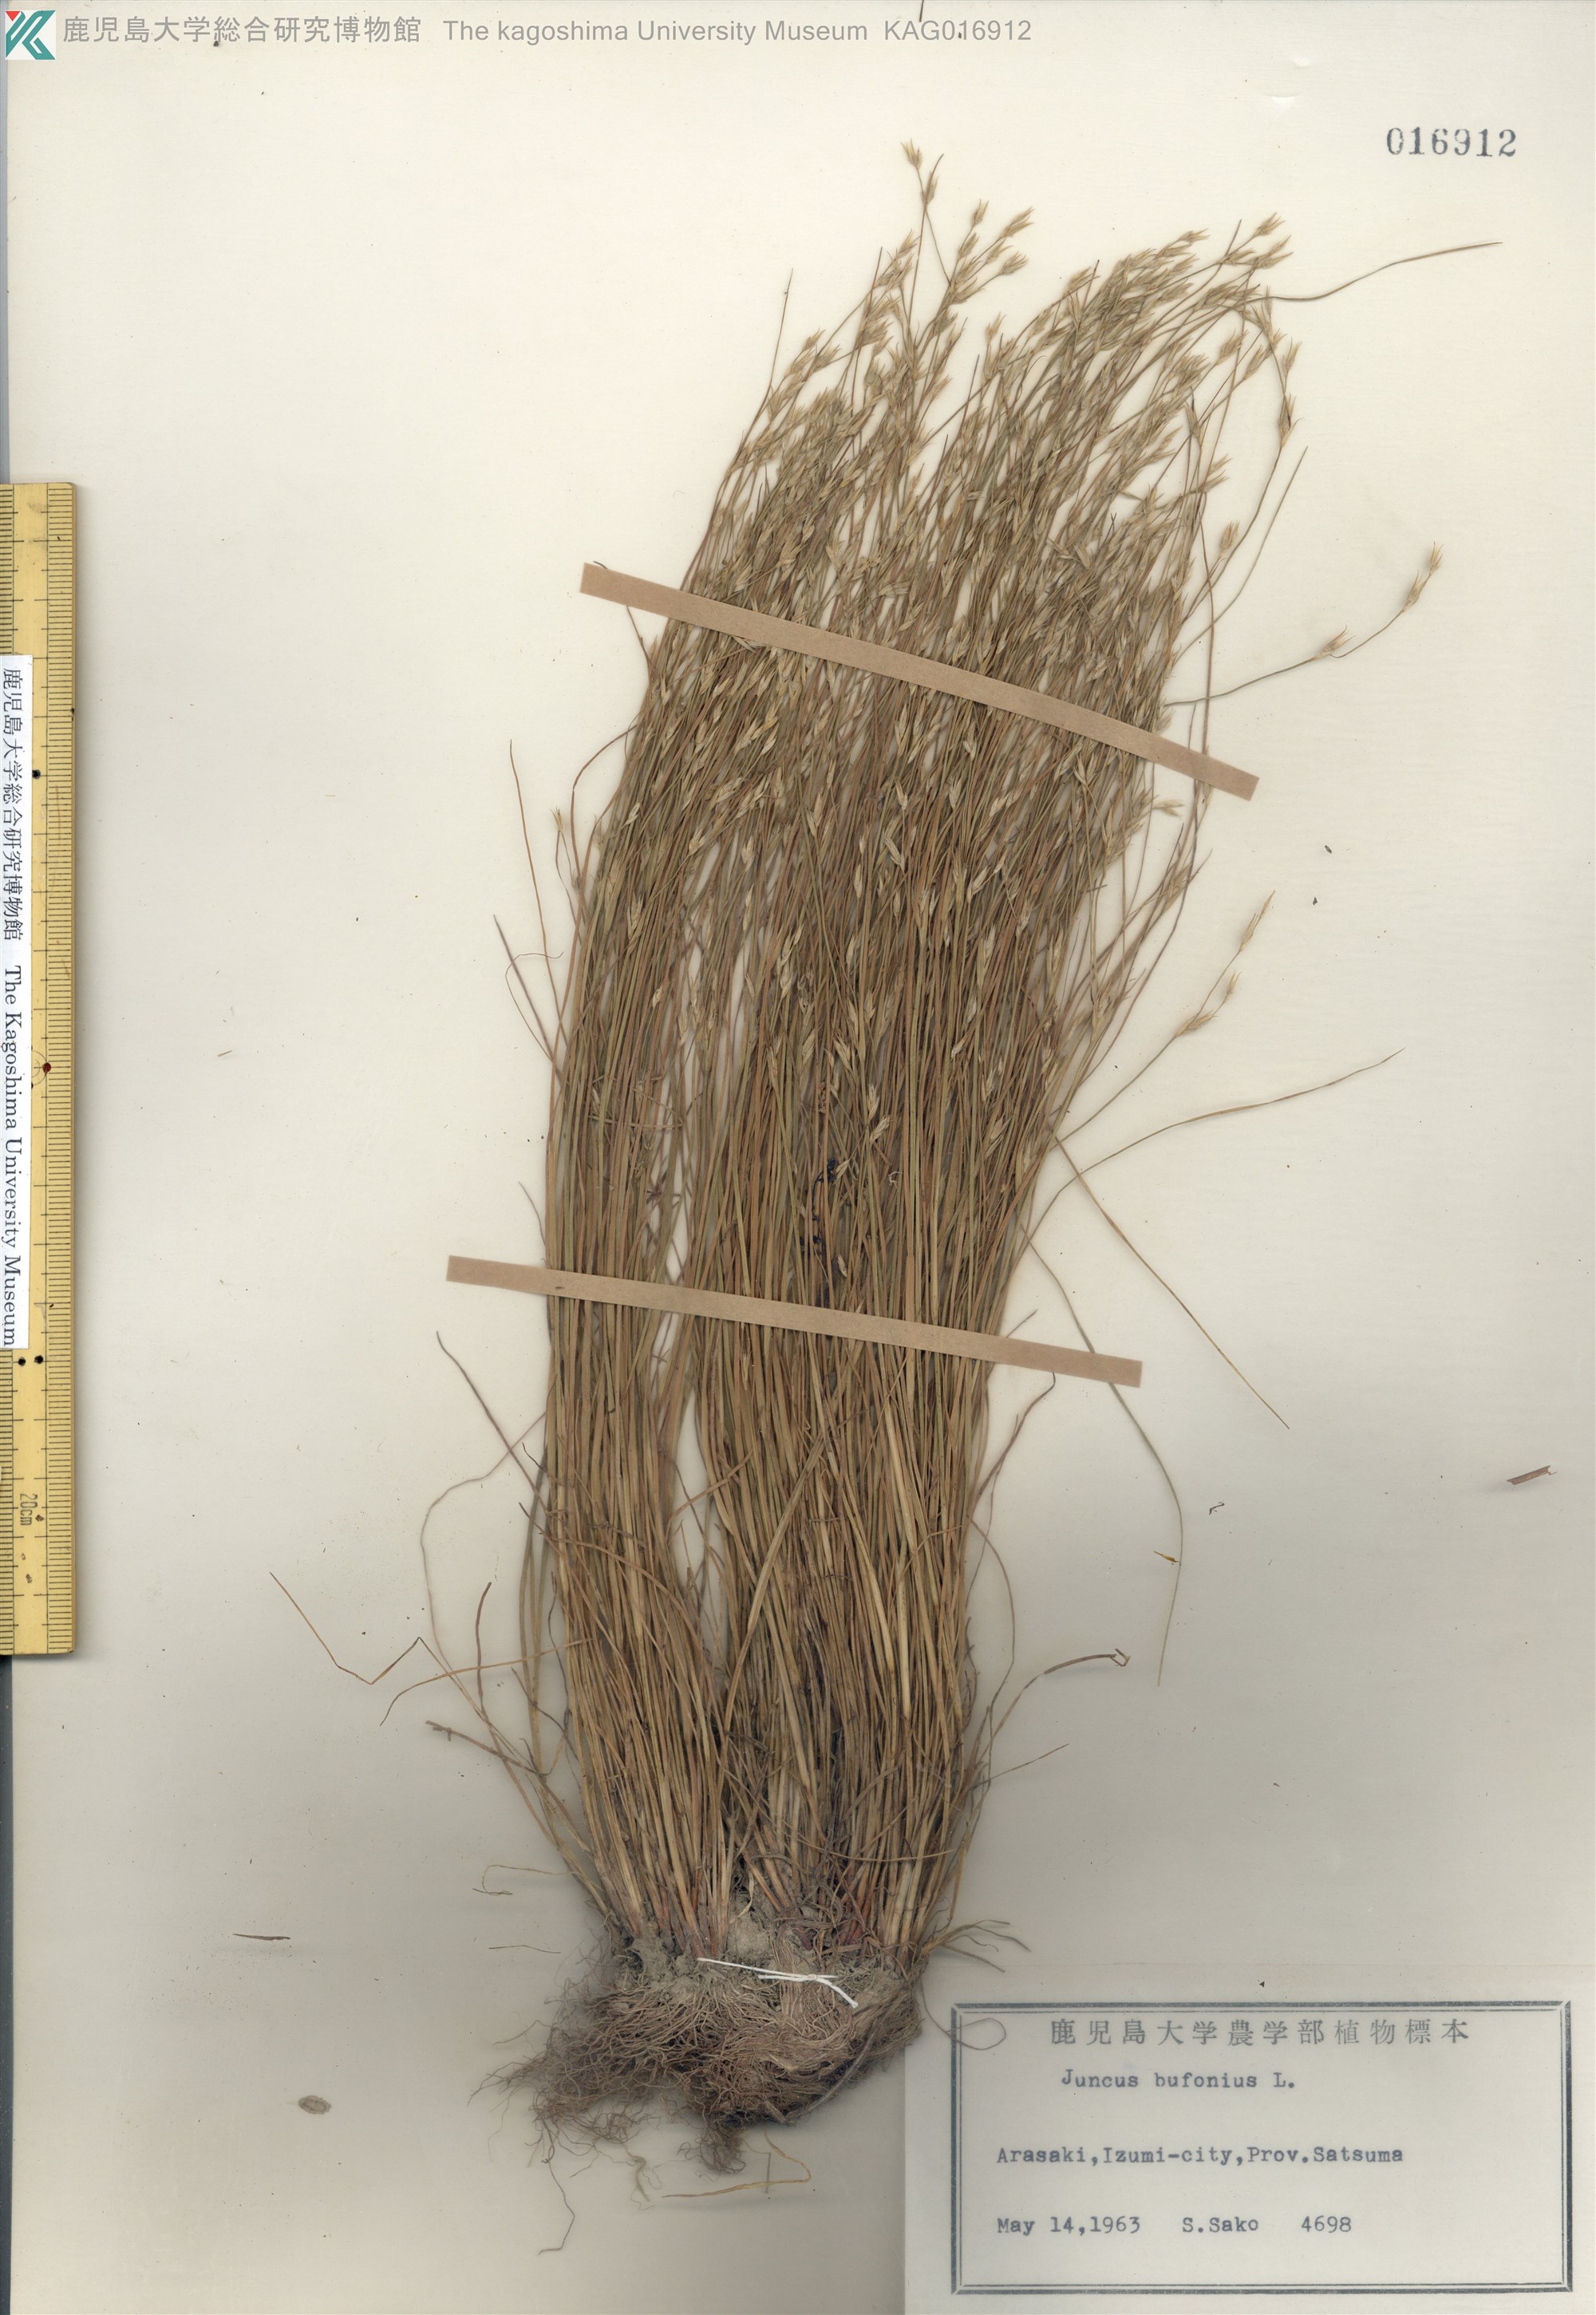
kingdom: Plantae
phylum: Tracheophyta
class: Liliopsida
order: Poales
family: Juncaceae
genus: Juncus
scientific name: Juncus bufonius
